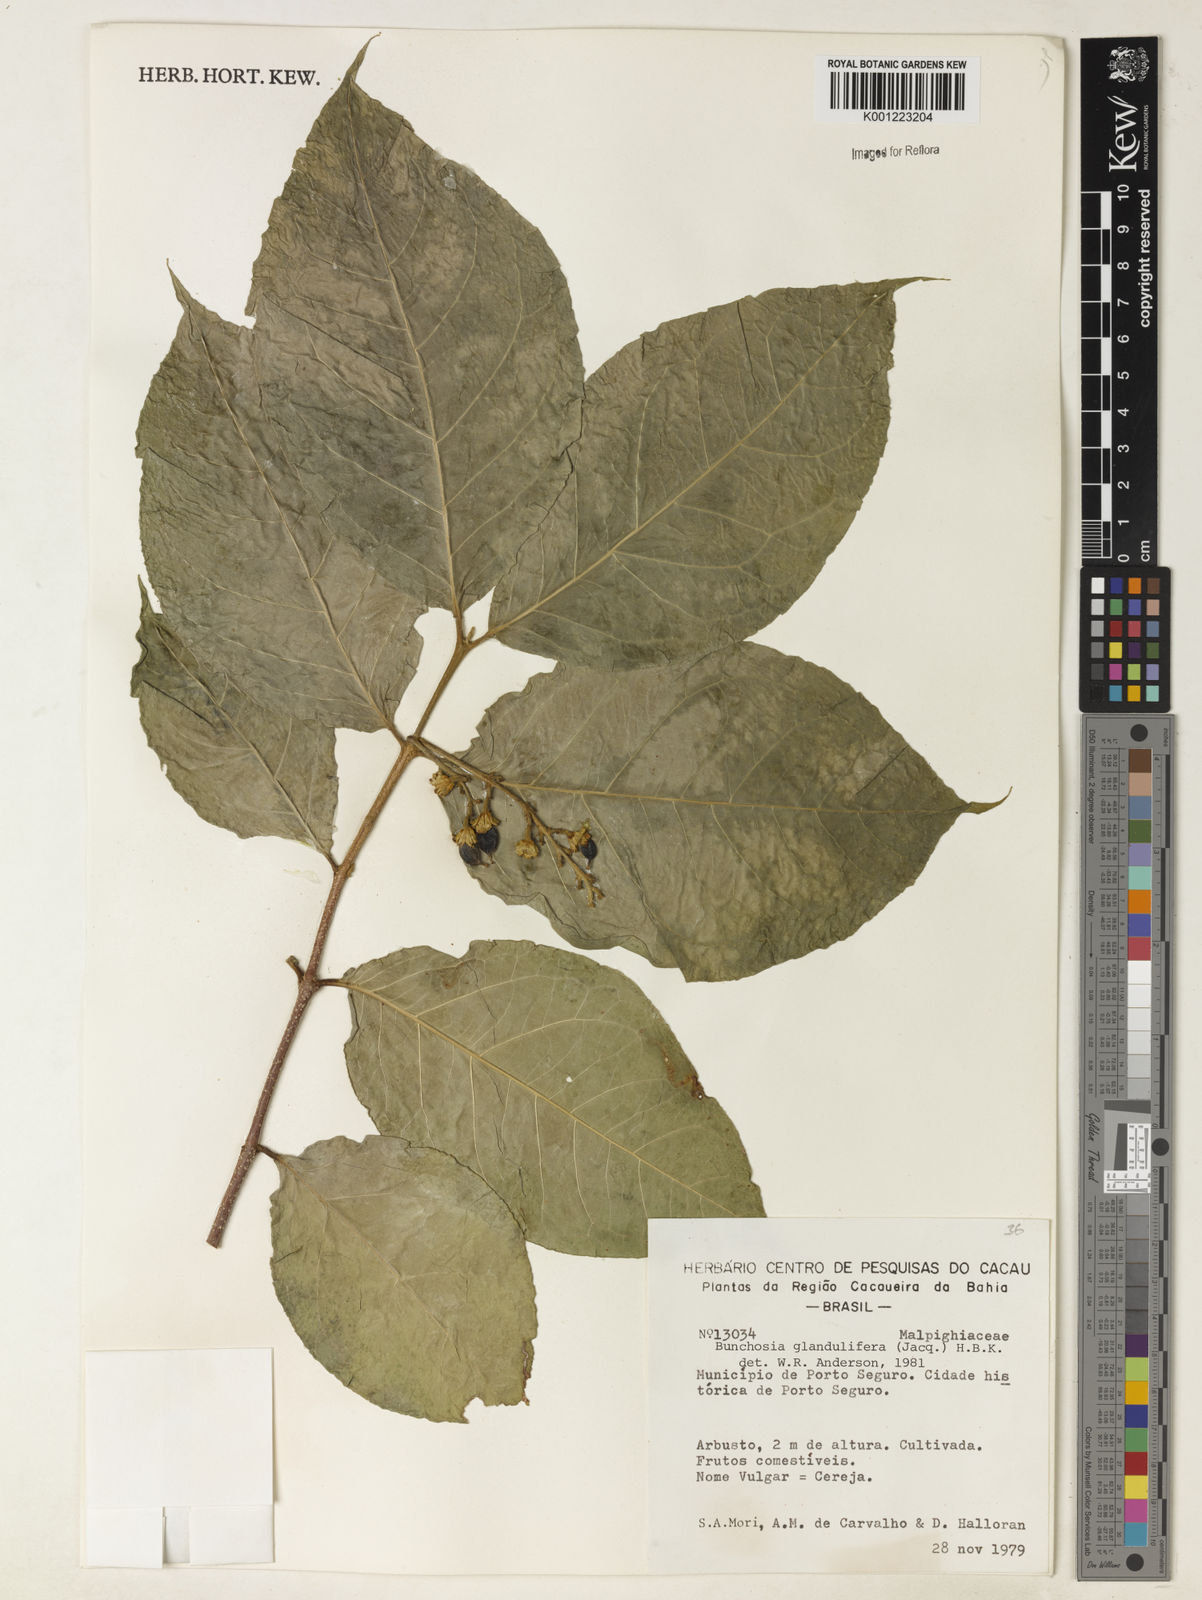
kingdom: Plantae
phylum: Tracheophyta
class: Magnoliopsida
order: Malpighiales
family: Malpighiaceae
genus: Bunchosia
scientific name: Bunchosia glandulifera
